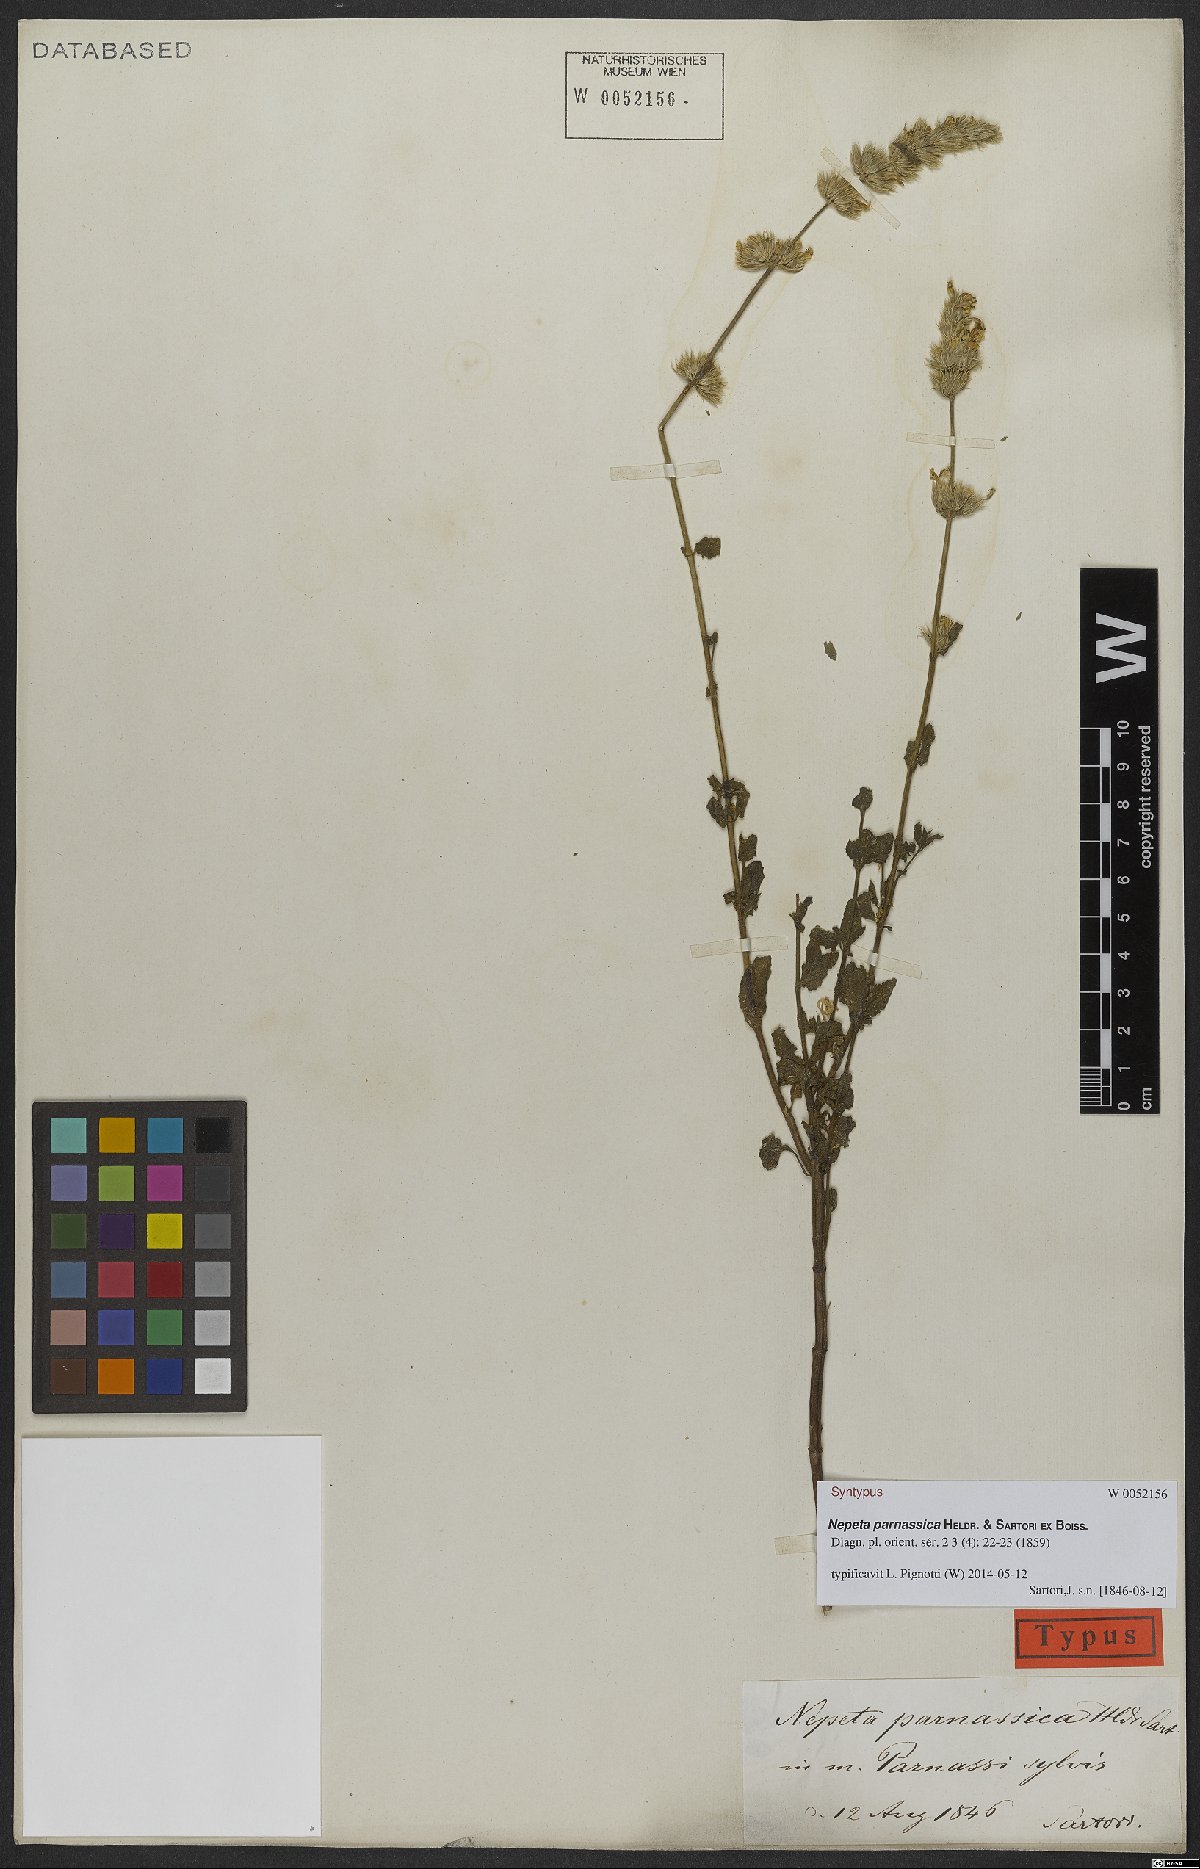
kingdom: Plantae
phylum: Tracheophyta
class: Magnoliopsida
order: Lamiales
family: Lamiaceae
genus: Nepeta
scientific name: Nepeta parnassica
